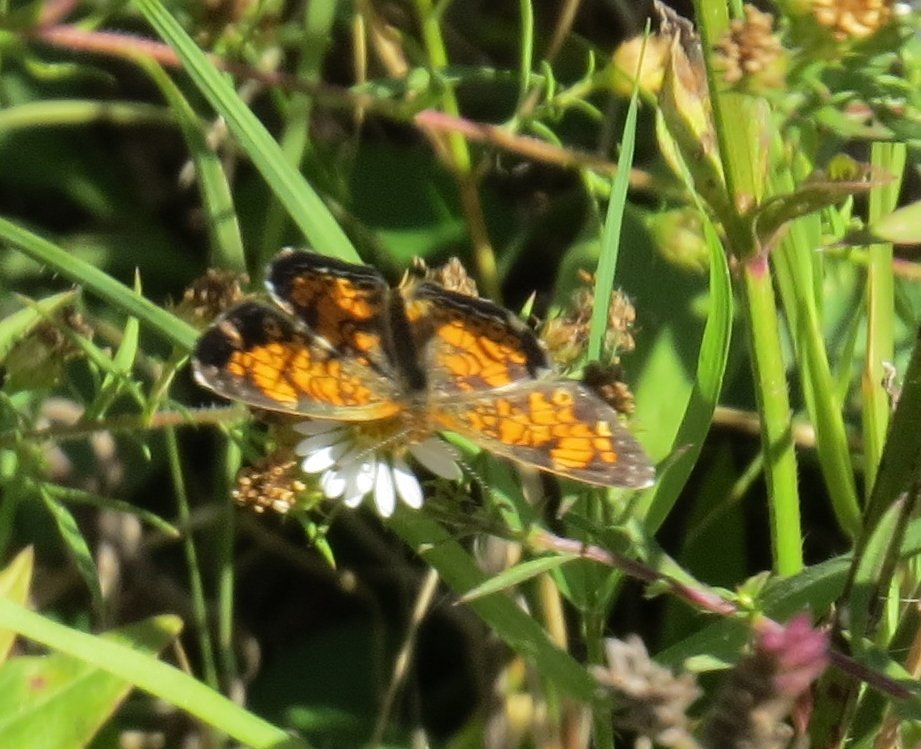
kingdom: Animalia
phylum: Arthropoda
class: Insecta
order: Lepidoptera
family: Nymphalidae
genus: Phyciodes
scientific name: Phyciodes tharos
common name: Pearl Crescent
